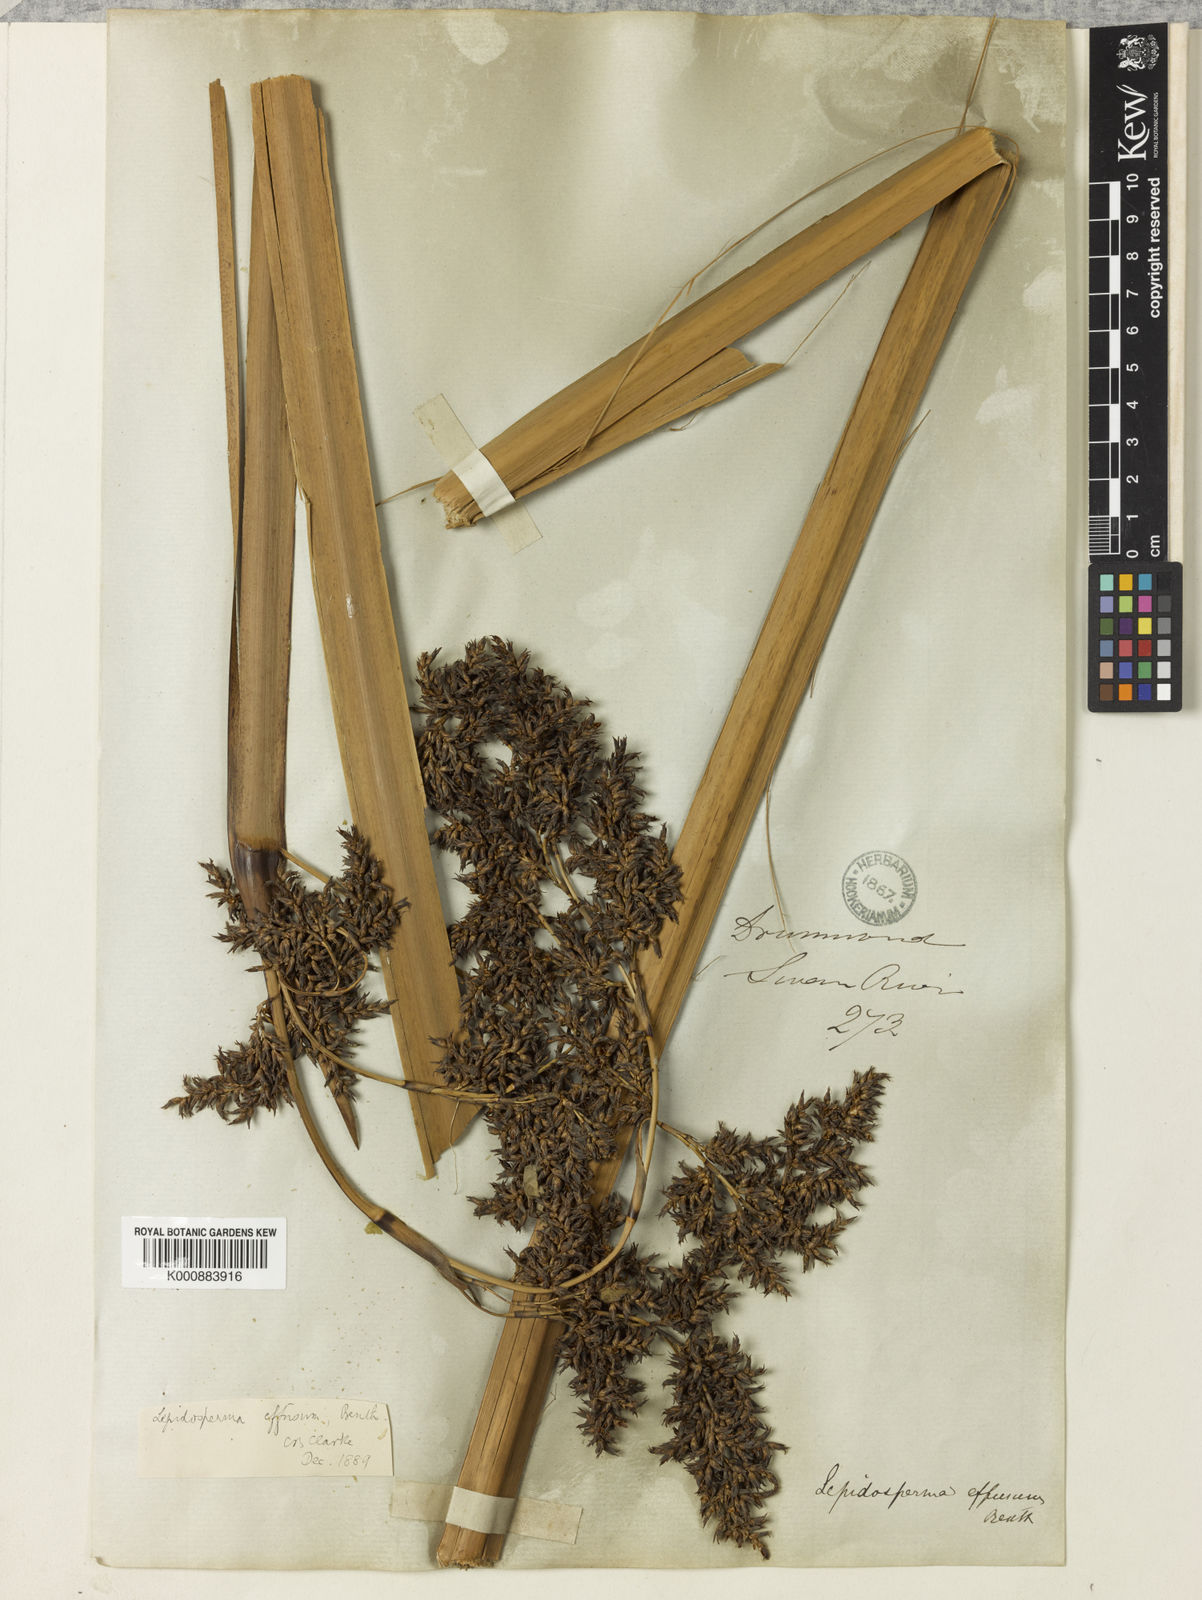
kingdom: Plantae
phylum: Tracheophyta
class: Liliopsida
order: Poales
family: Cyperaceae
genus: Lepidosperma
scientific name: Lepidosperma effusum
